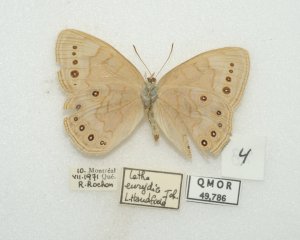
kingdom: Animalia
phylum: Arthropoda
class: Insecta
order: Lepidoptera
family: Nymphalidae
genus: Lethe
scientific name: Lethe eurydice
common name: Eyed Brown
